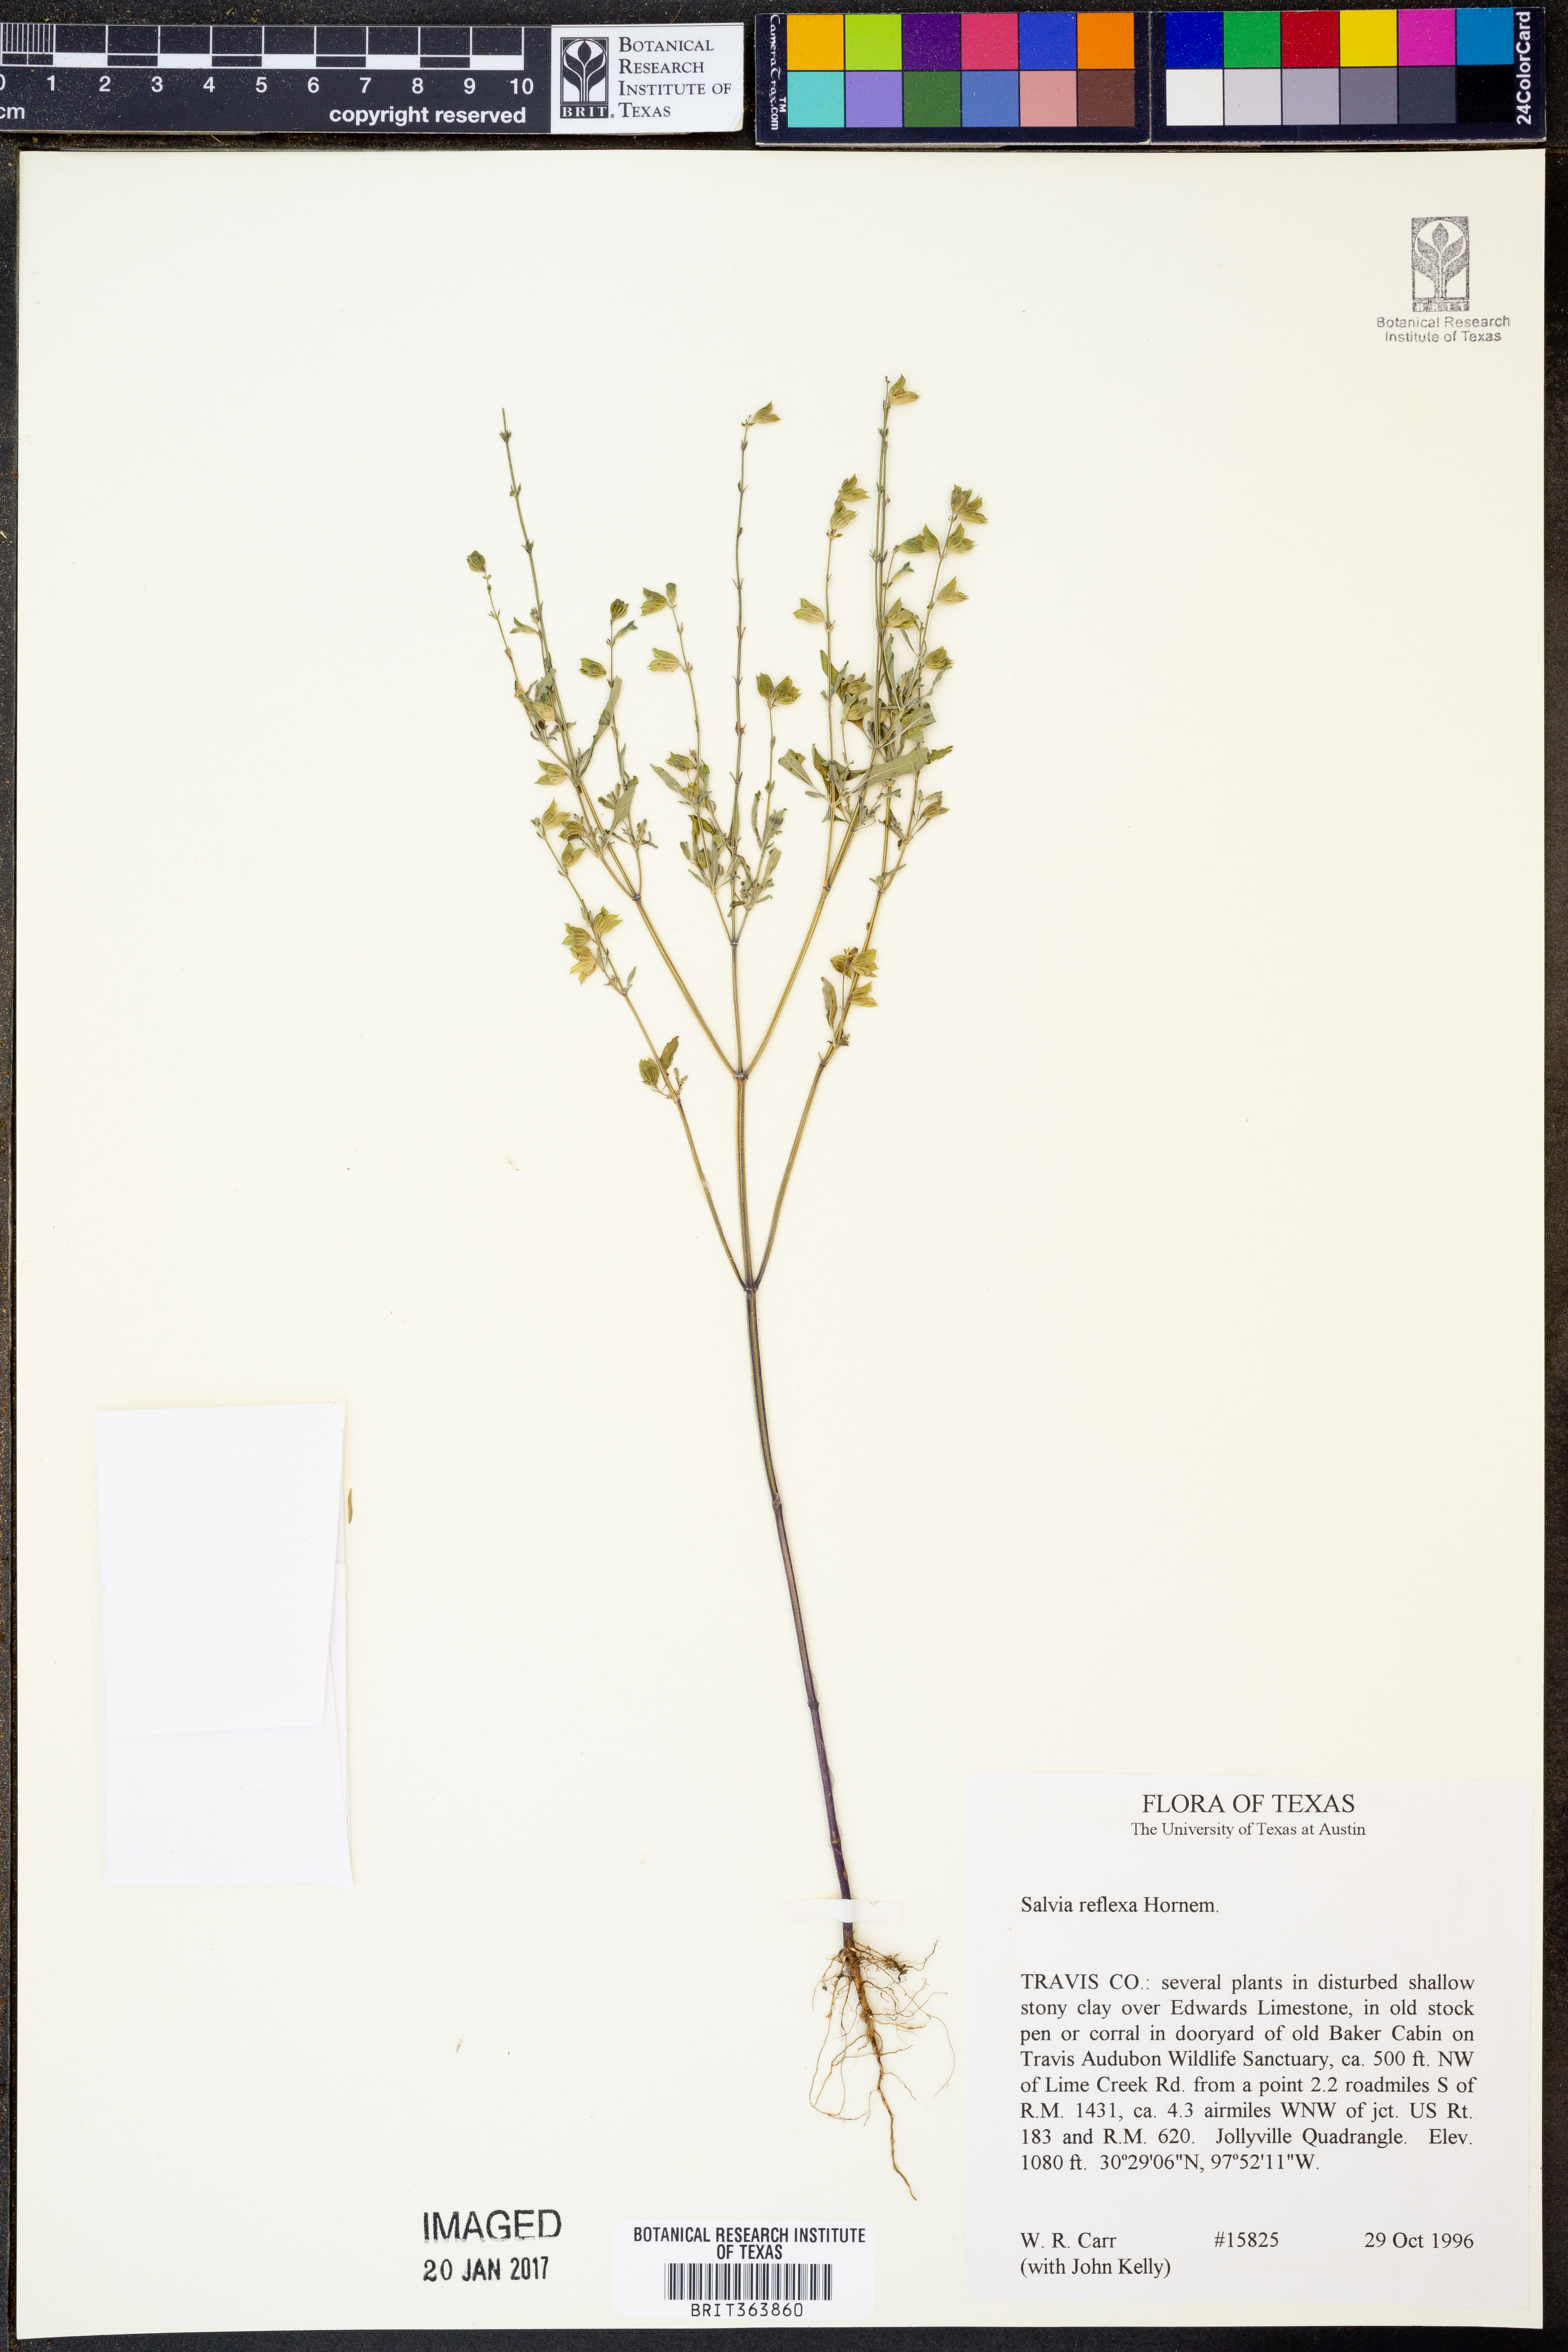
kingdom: Plantae
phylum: Tracheophyta
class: Magnoliopsida
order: Lamiales
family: Lamiaceae
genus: Salvia
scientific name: Salvia reflexa
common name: Mintweed
